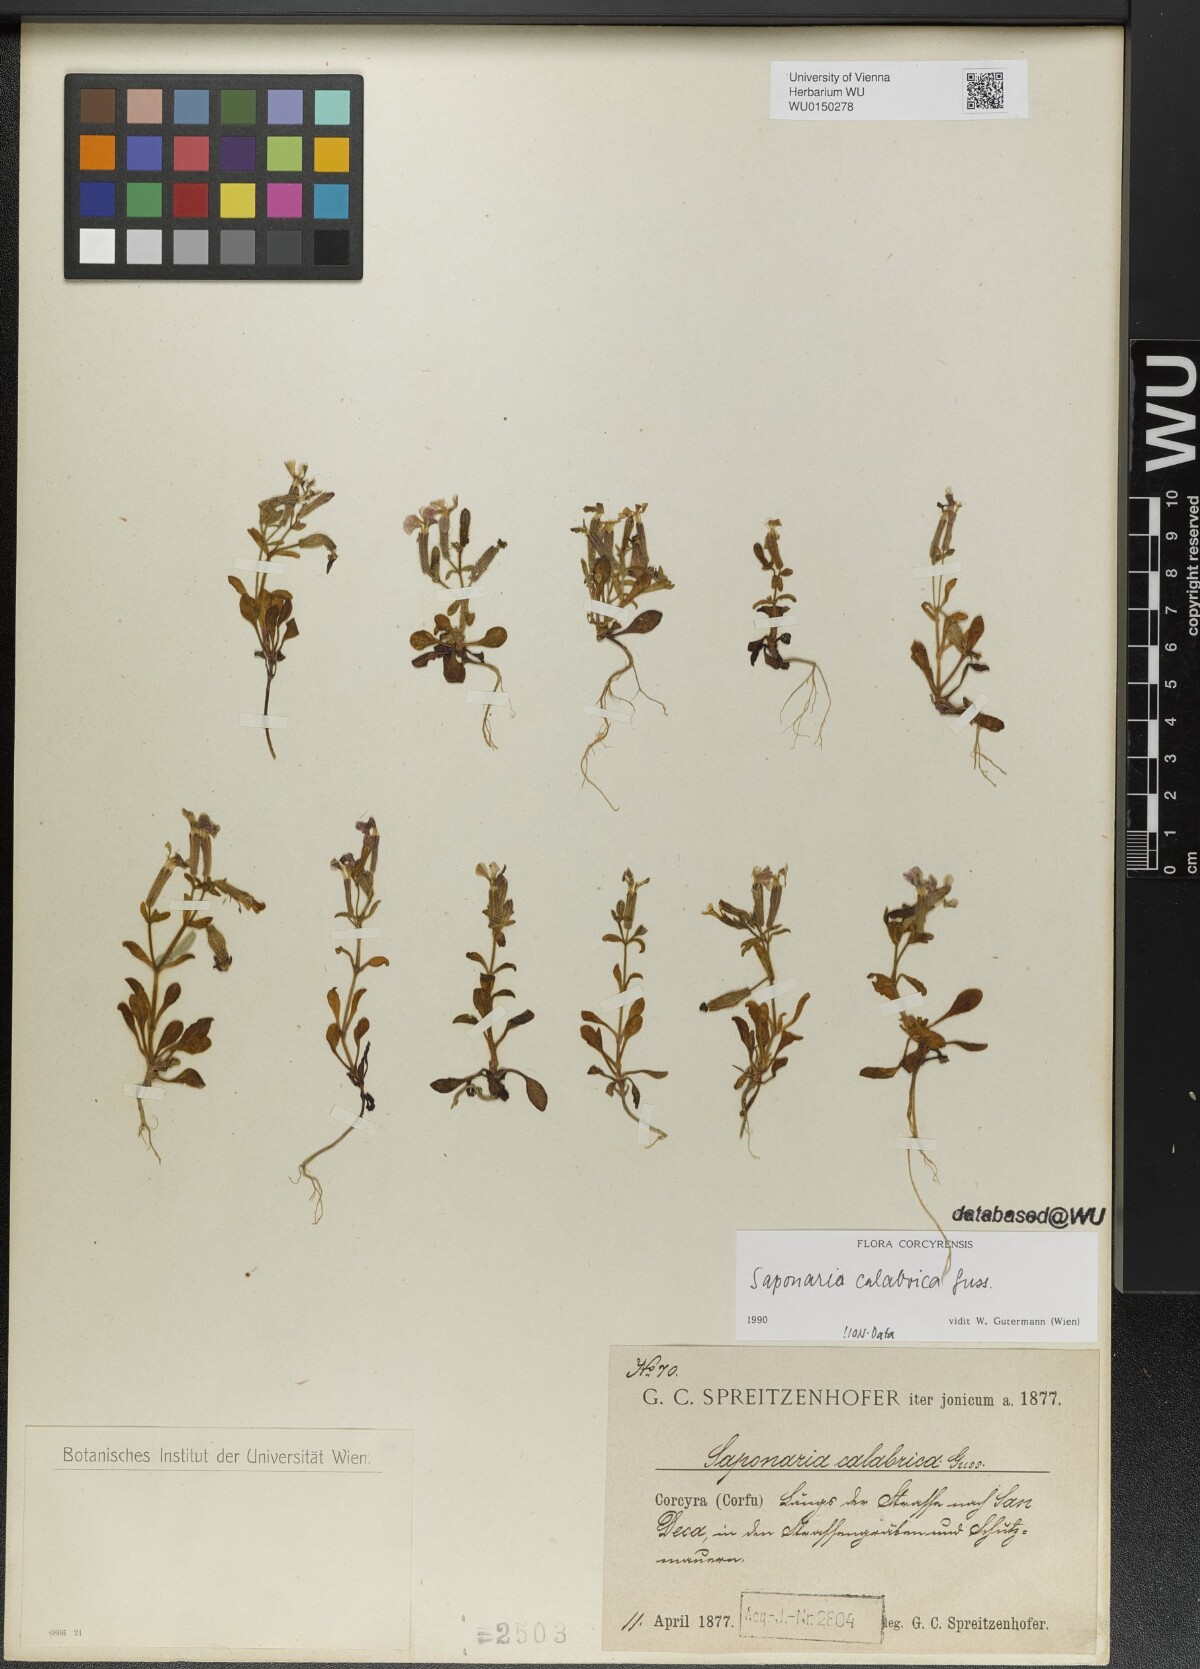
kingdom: Plantae
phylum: Tracheophyta
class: Magnoliopsida
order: Caryophyllales
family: Caryophyllaceae
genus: Saponaria
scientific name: Saponaria calabrica
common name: Adriatic soapwort
